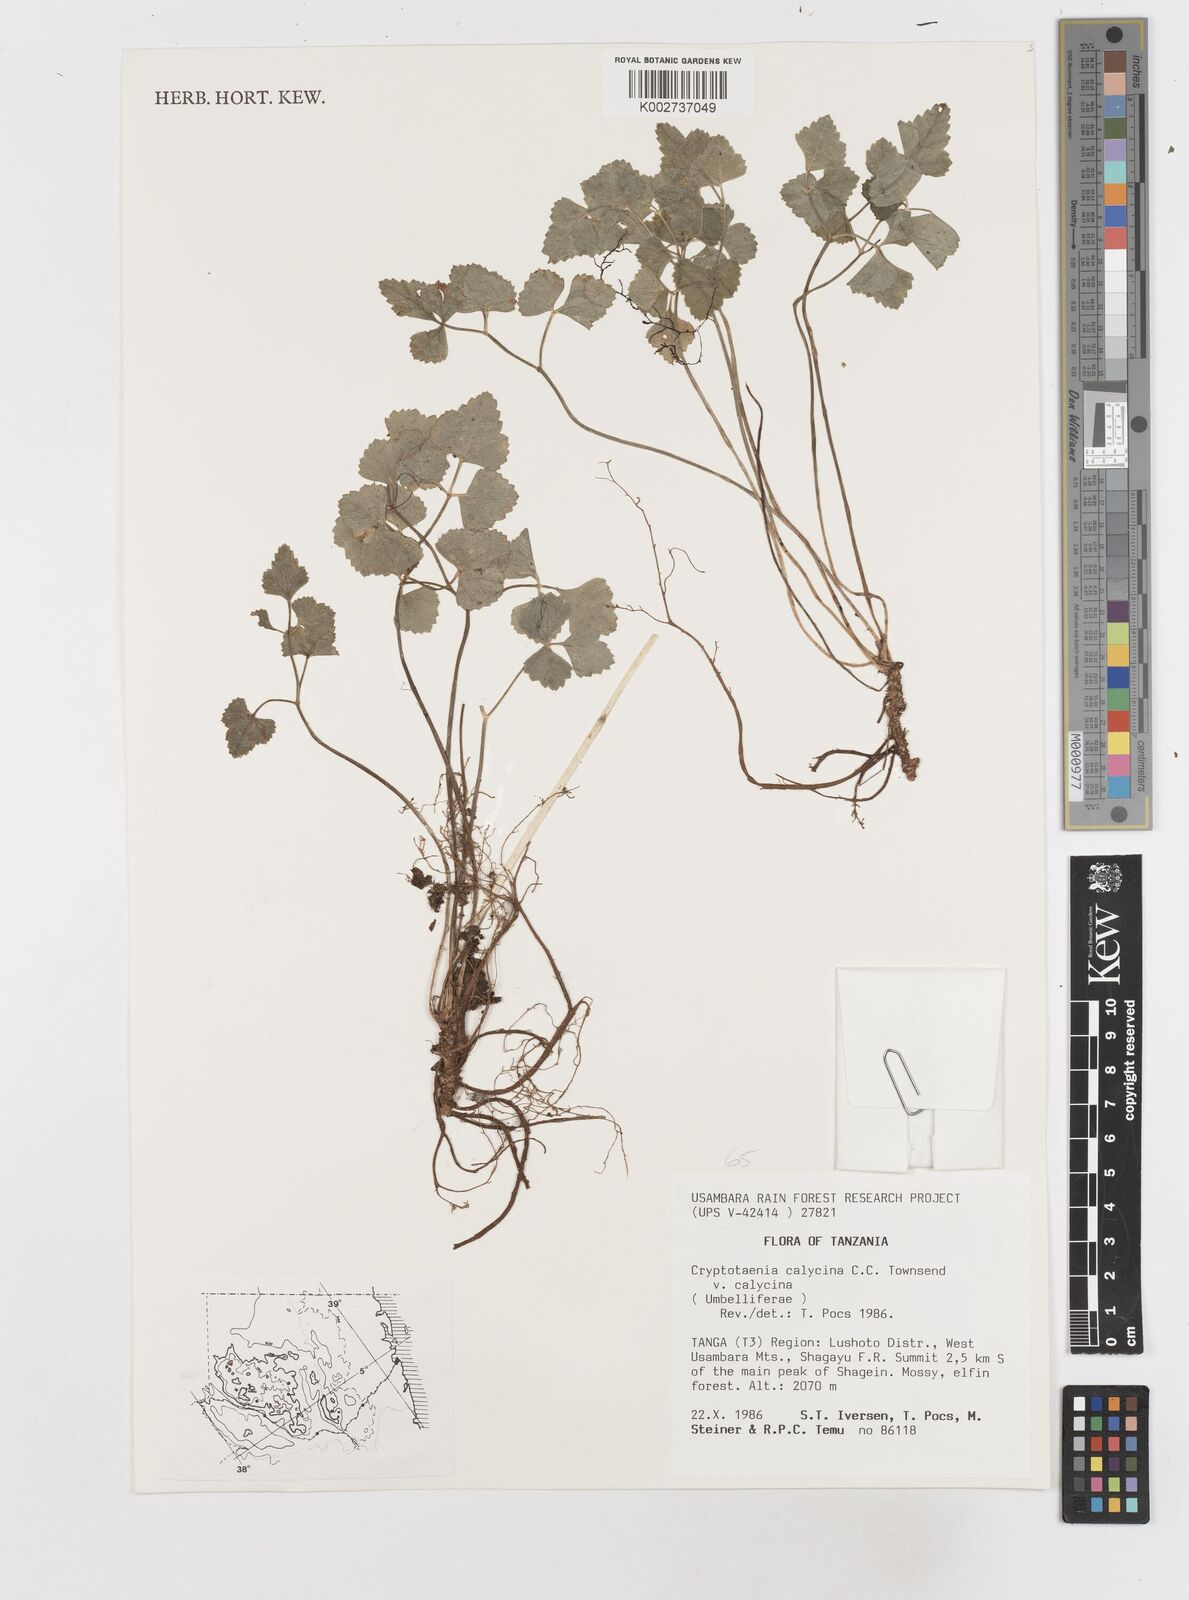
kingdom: Plantae
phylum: Tracheophyta
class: Magnoliopsida
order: Apiales
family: Apiaceae
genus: Cryptotaenia
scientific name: Cryptotaenia calycina
